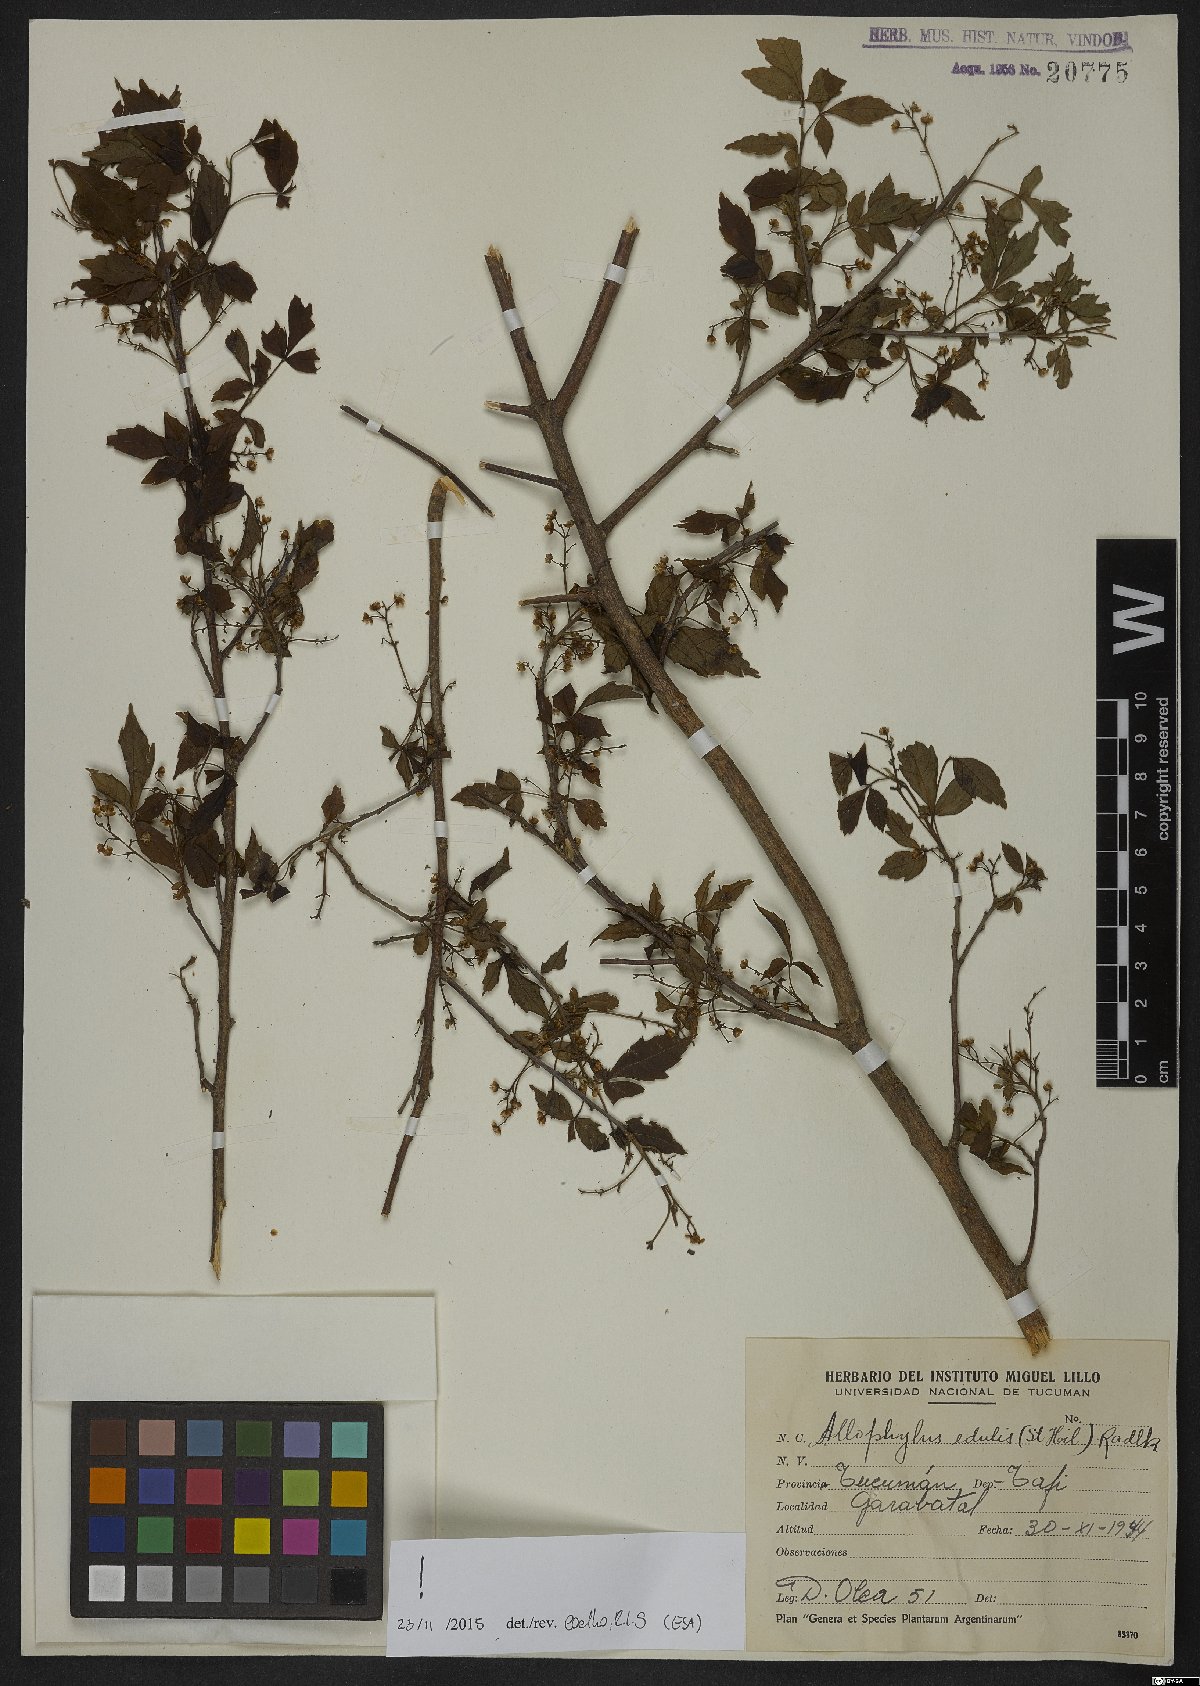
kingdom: Plantae
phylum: Tracheophyta
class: Magnoliopsida
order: Sapindales
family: Sapindaceae
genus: Allophylus
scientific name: Allophylus edulis
